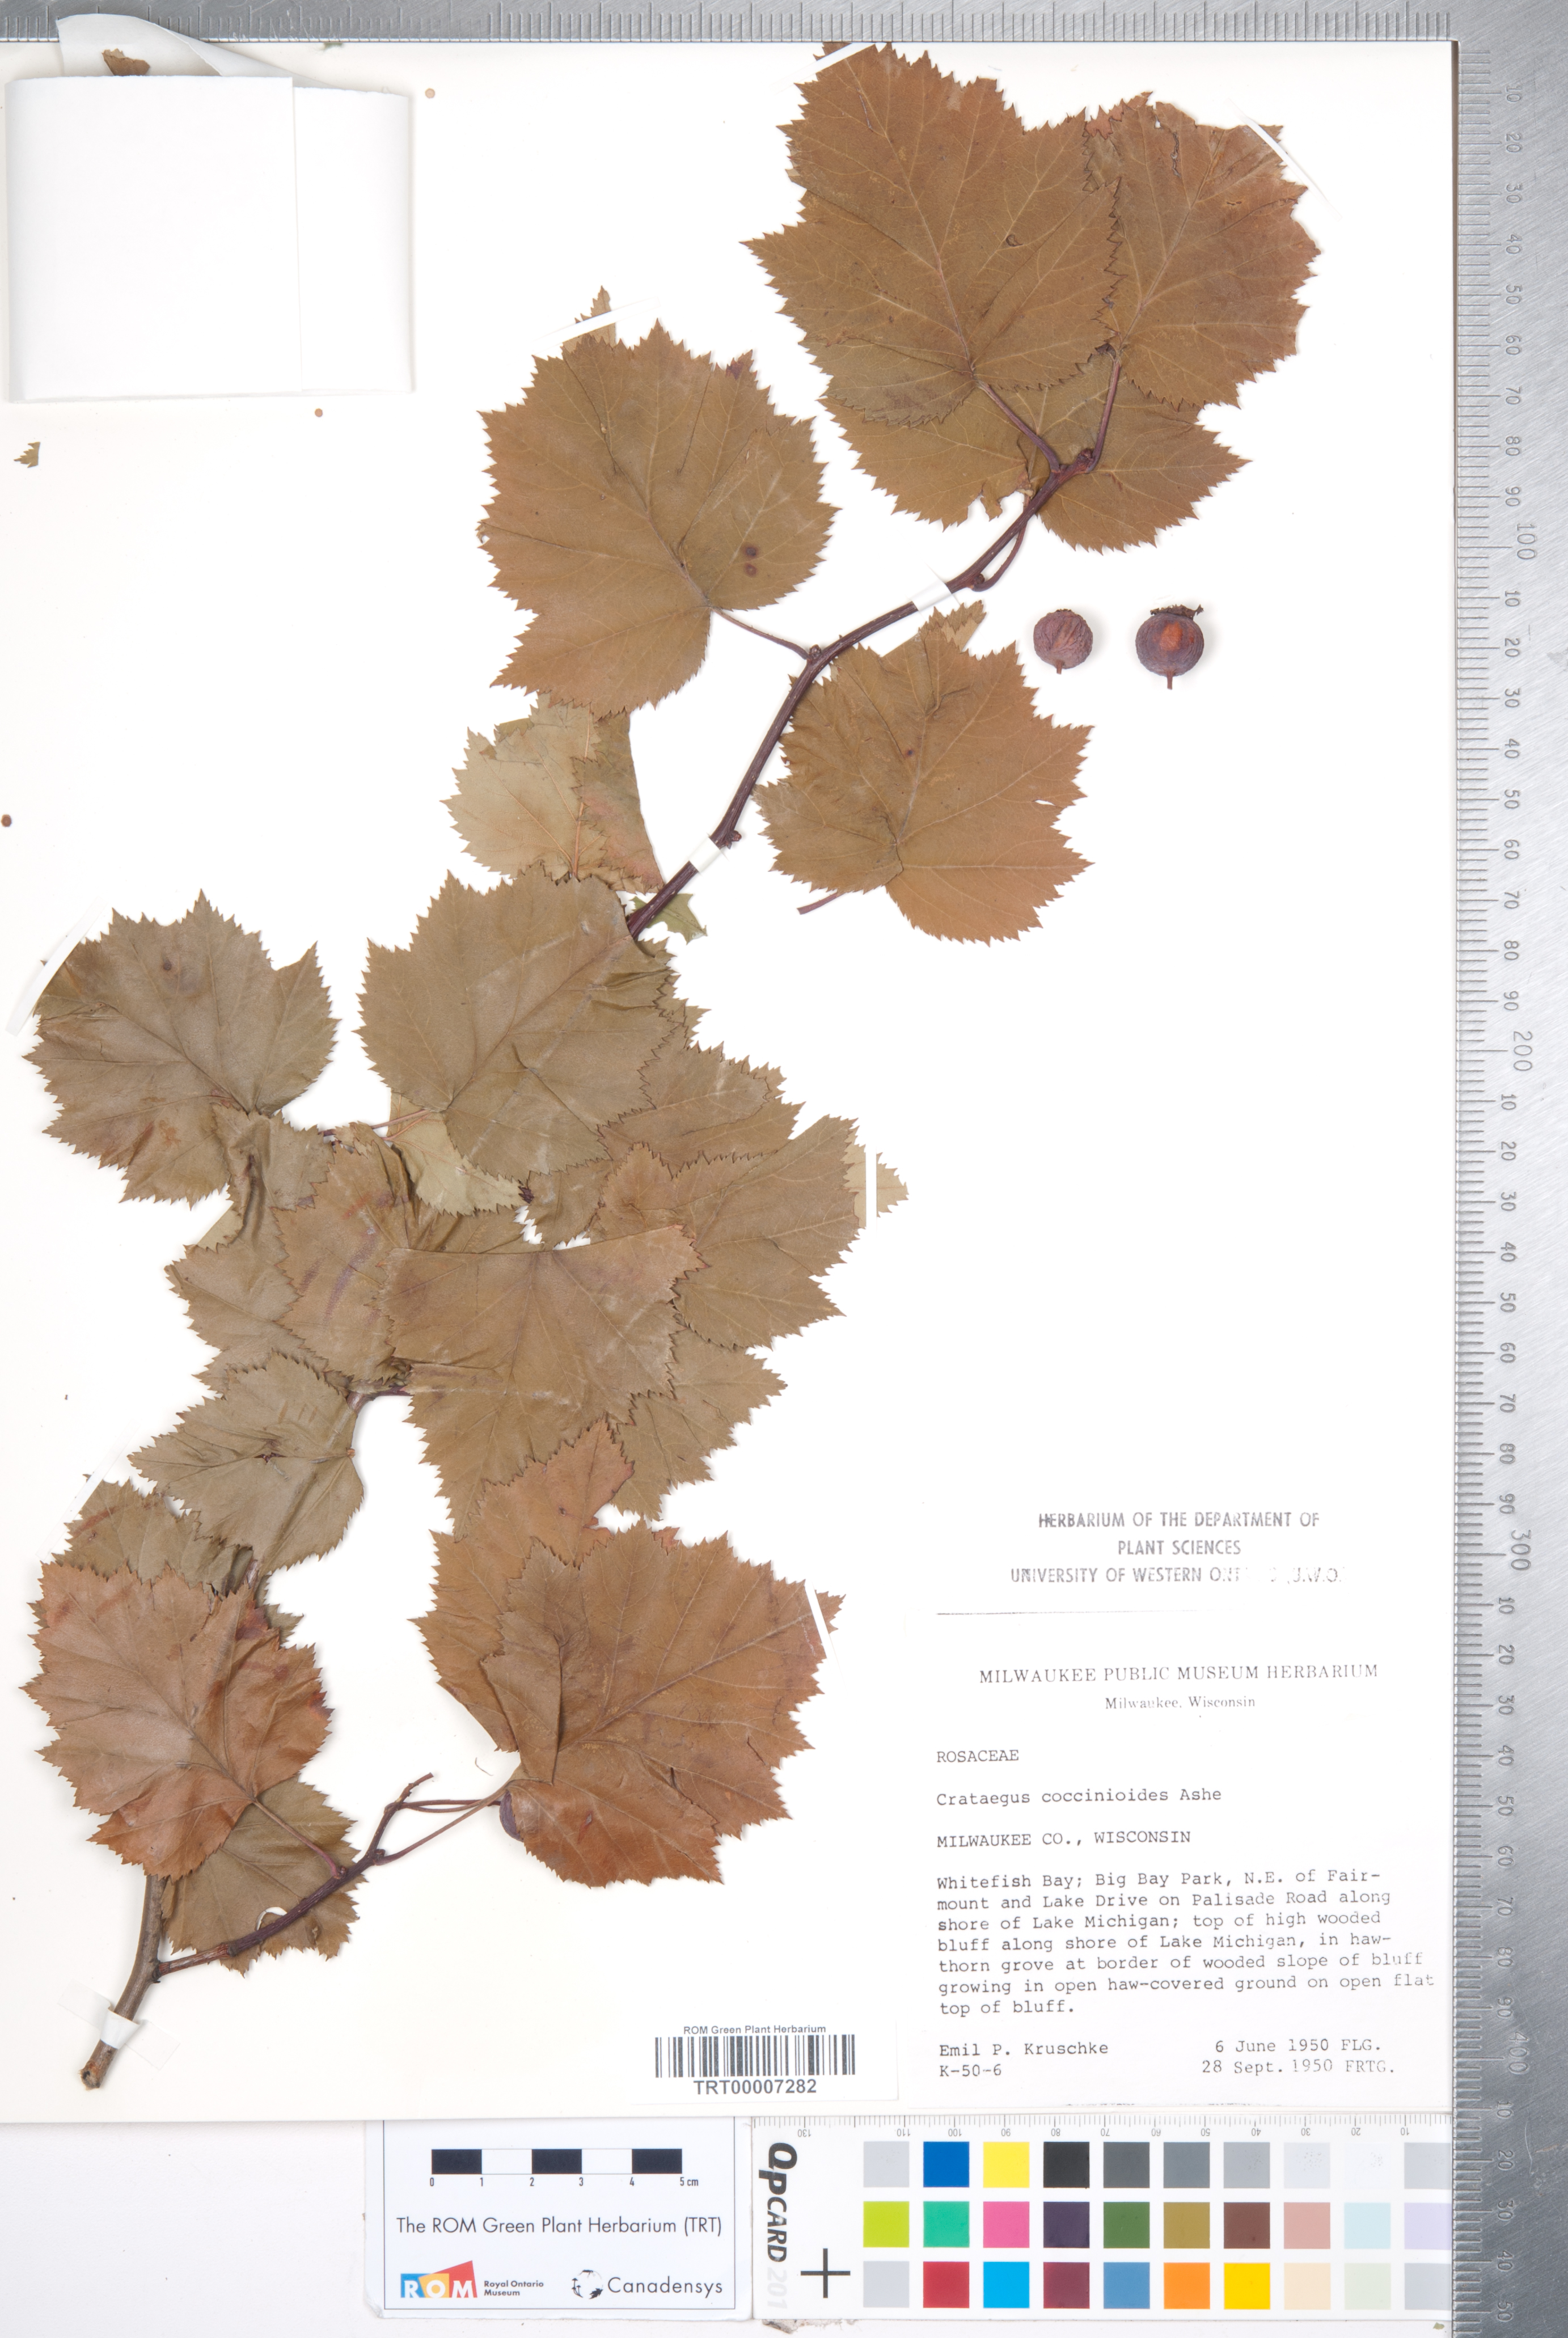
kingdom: Plantae
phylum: Tracheophyta
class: Magnoliopsida
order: Rosales
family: Rosaceae
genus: Crataegus
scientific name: Crataegus coccinioides
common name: Large-flowered cockspurthorn
